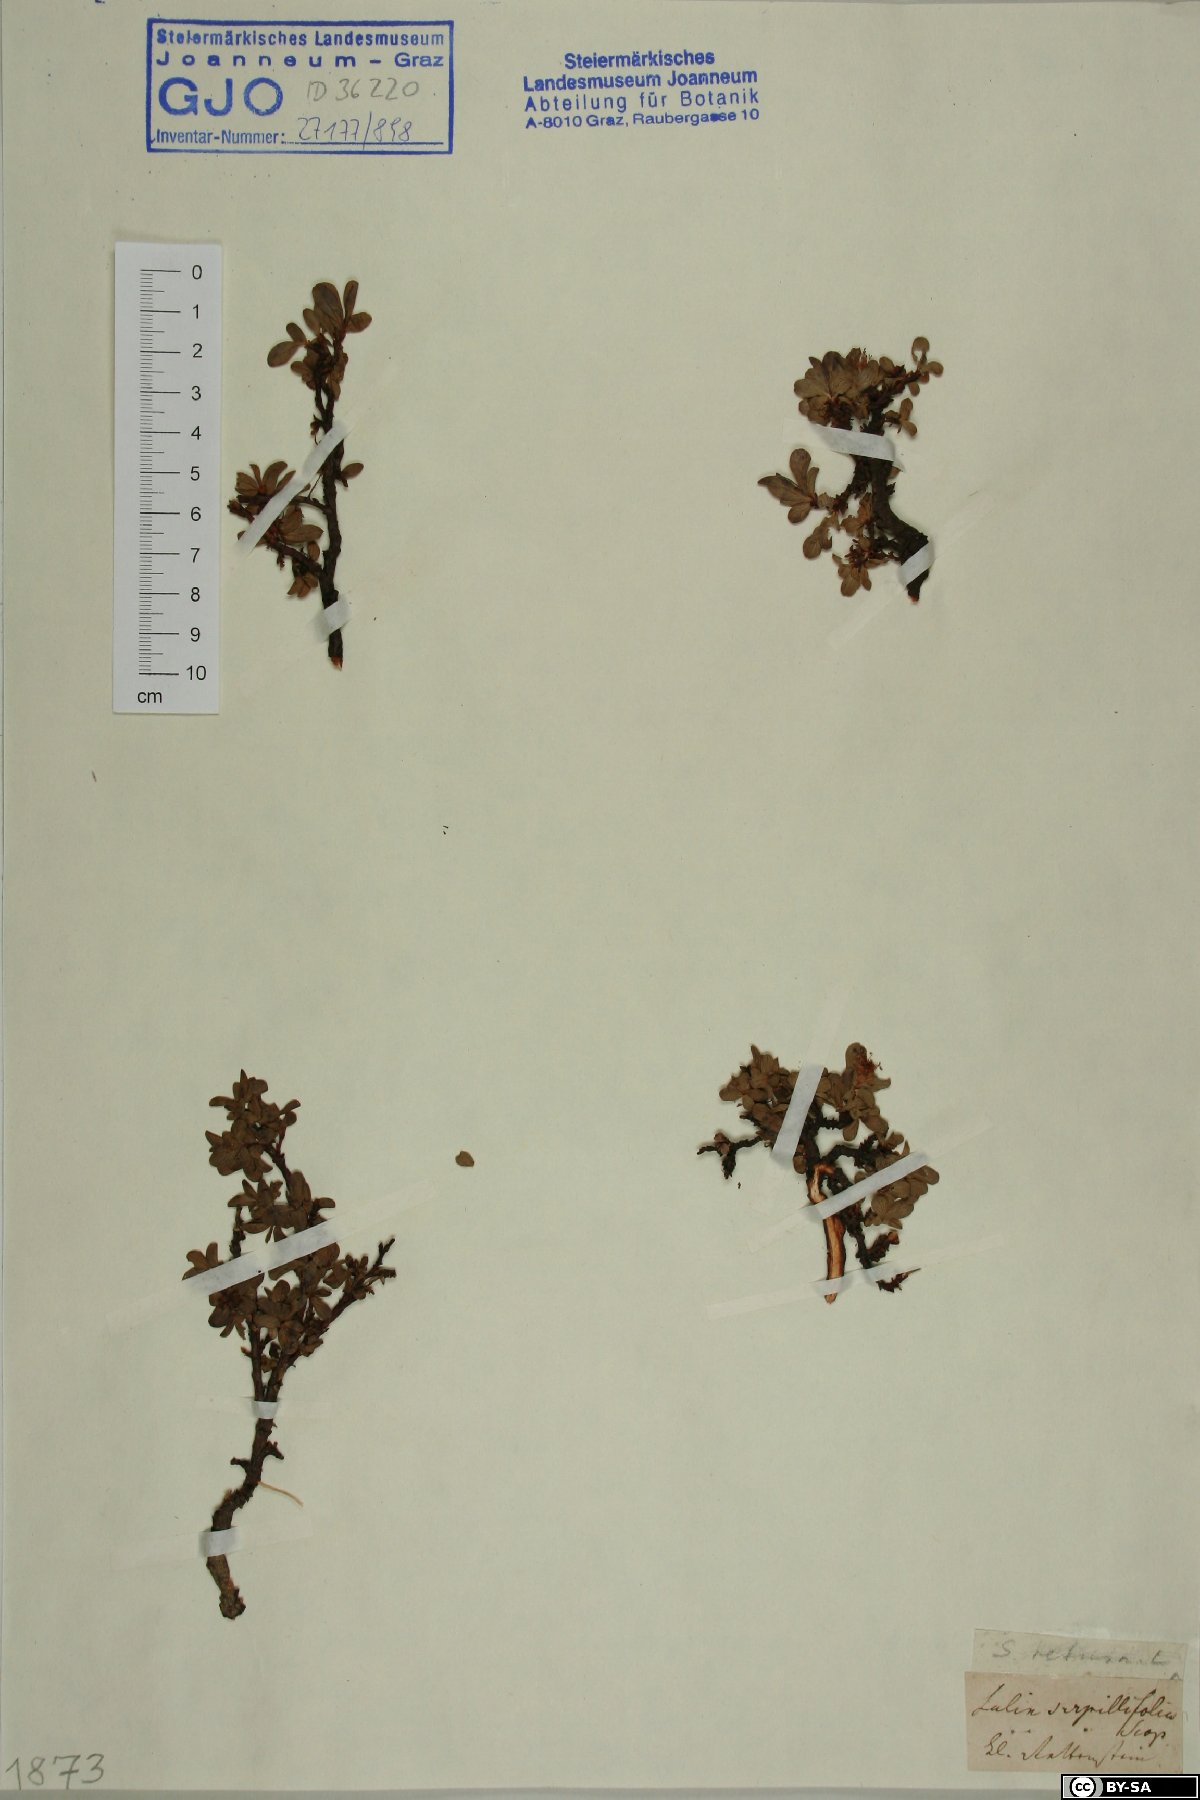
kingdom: Plantae
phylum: Tracheophyta
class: Magnoliopsida
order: Malpighiales
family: Salicaceae
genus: Salix
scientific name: Salix retusa
